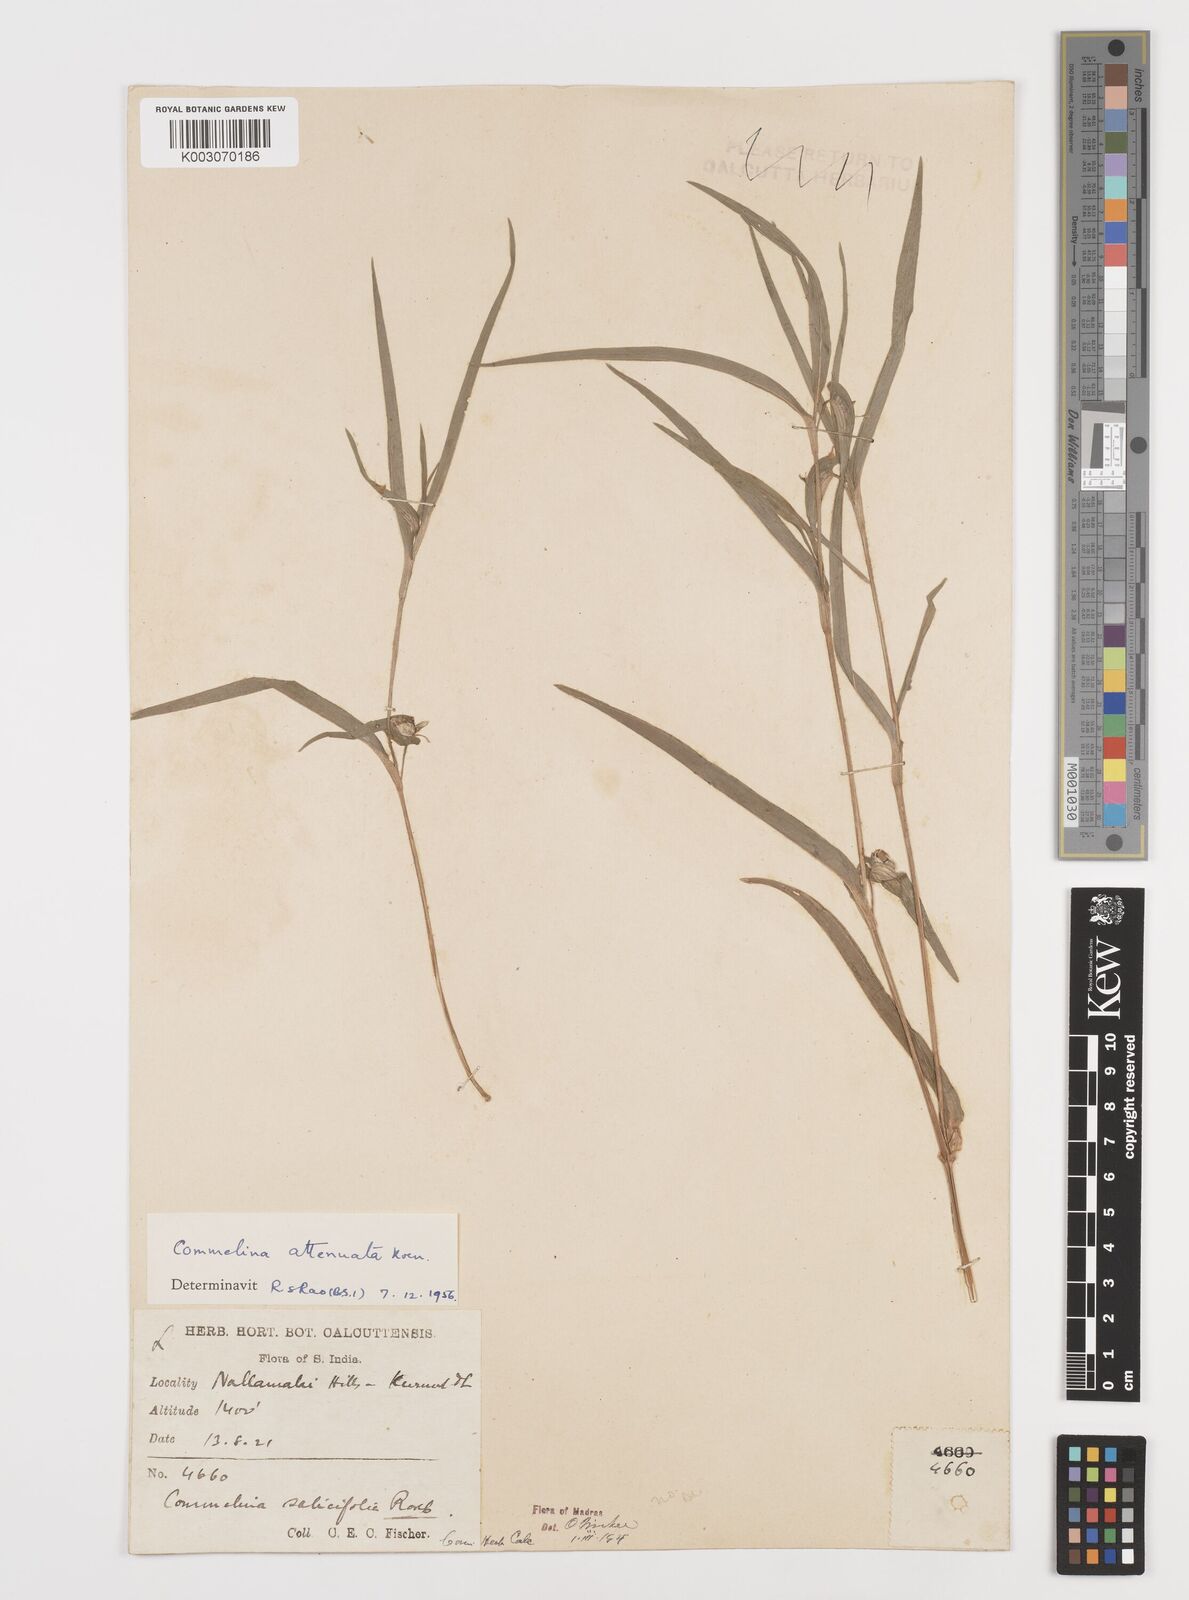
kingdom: Plantae
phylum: Tracheophyta
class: Liliopsida
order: Commelinales
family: Commelinaceae
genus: Commelina
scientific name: Commelina attenuata
